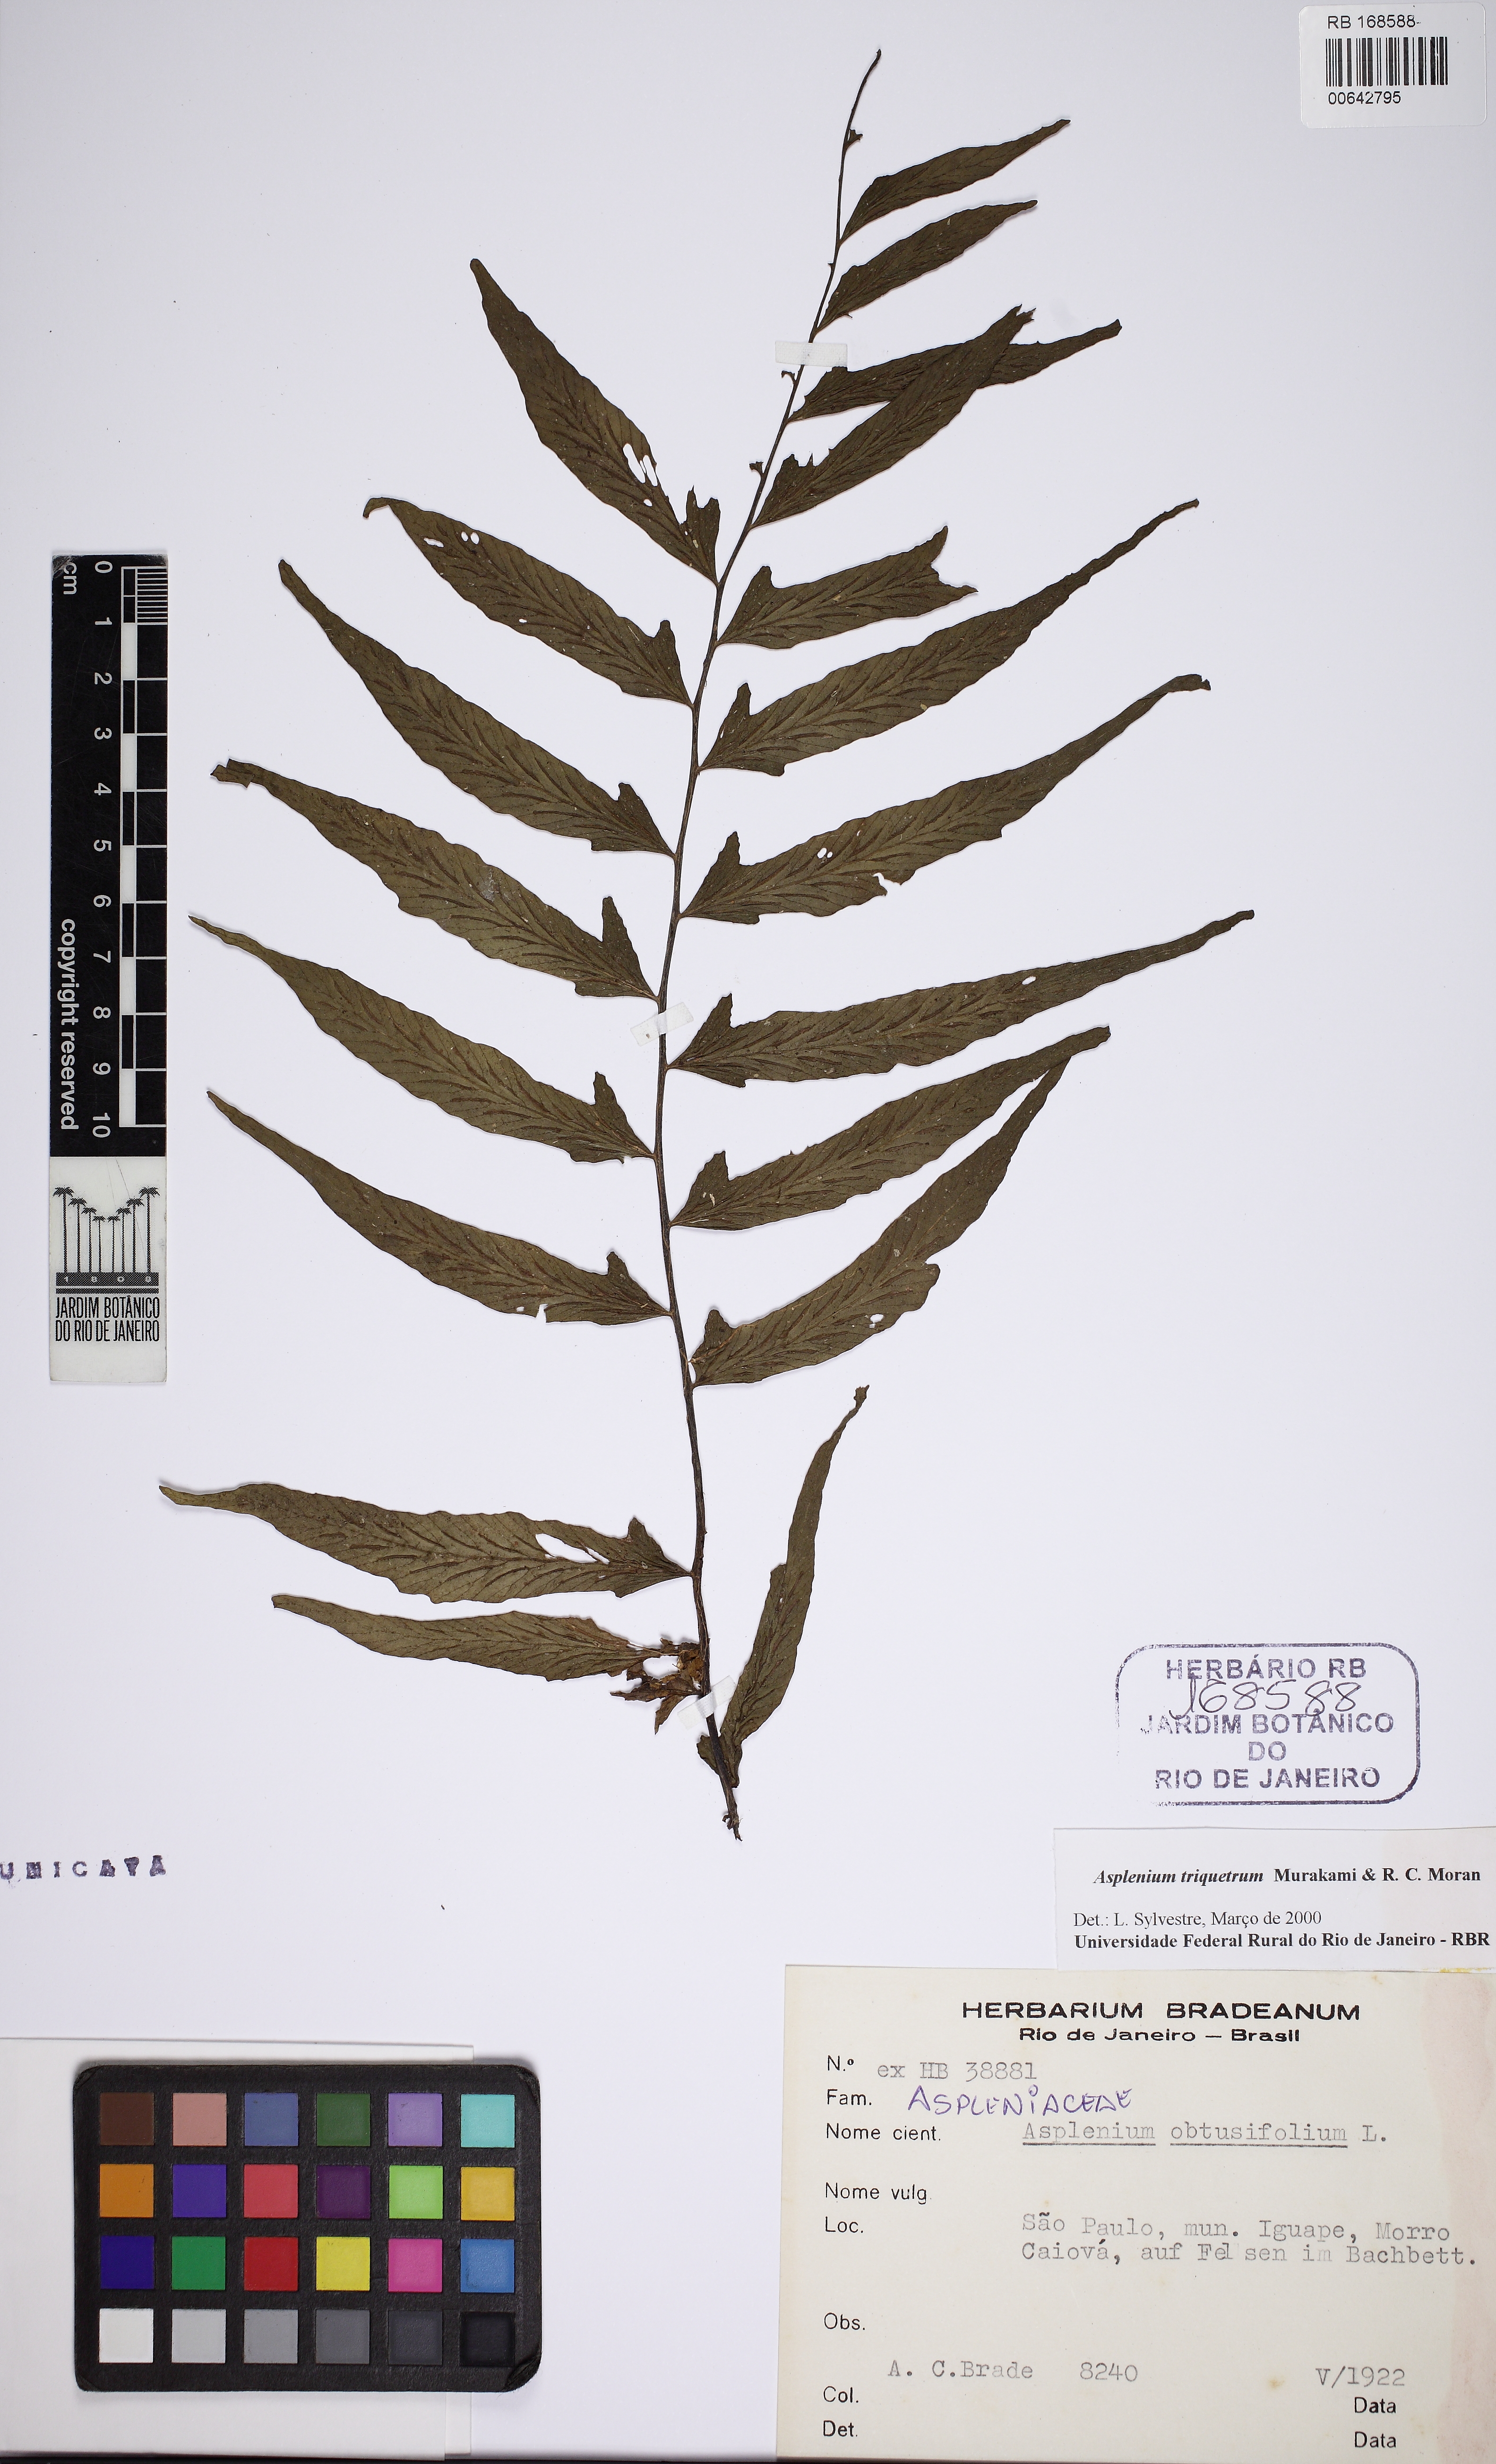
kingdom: Plantae
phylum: Tracheophyta
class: Polypodiopsida
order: Polypodiales
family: Aspleniaceae
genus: Hymenasplenium
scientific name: Hymenasplenium triquetrum
